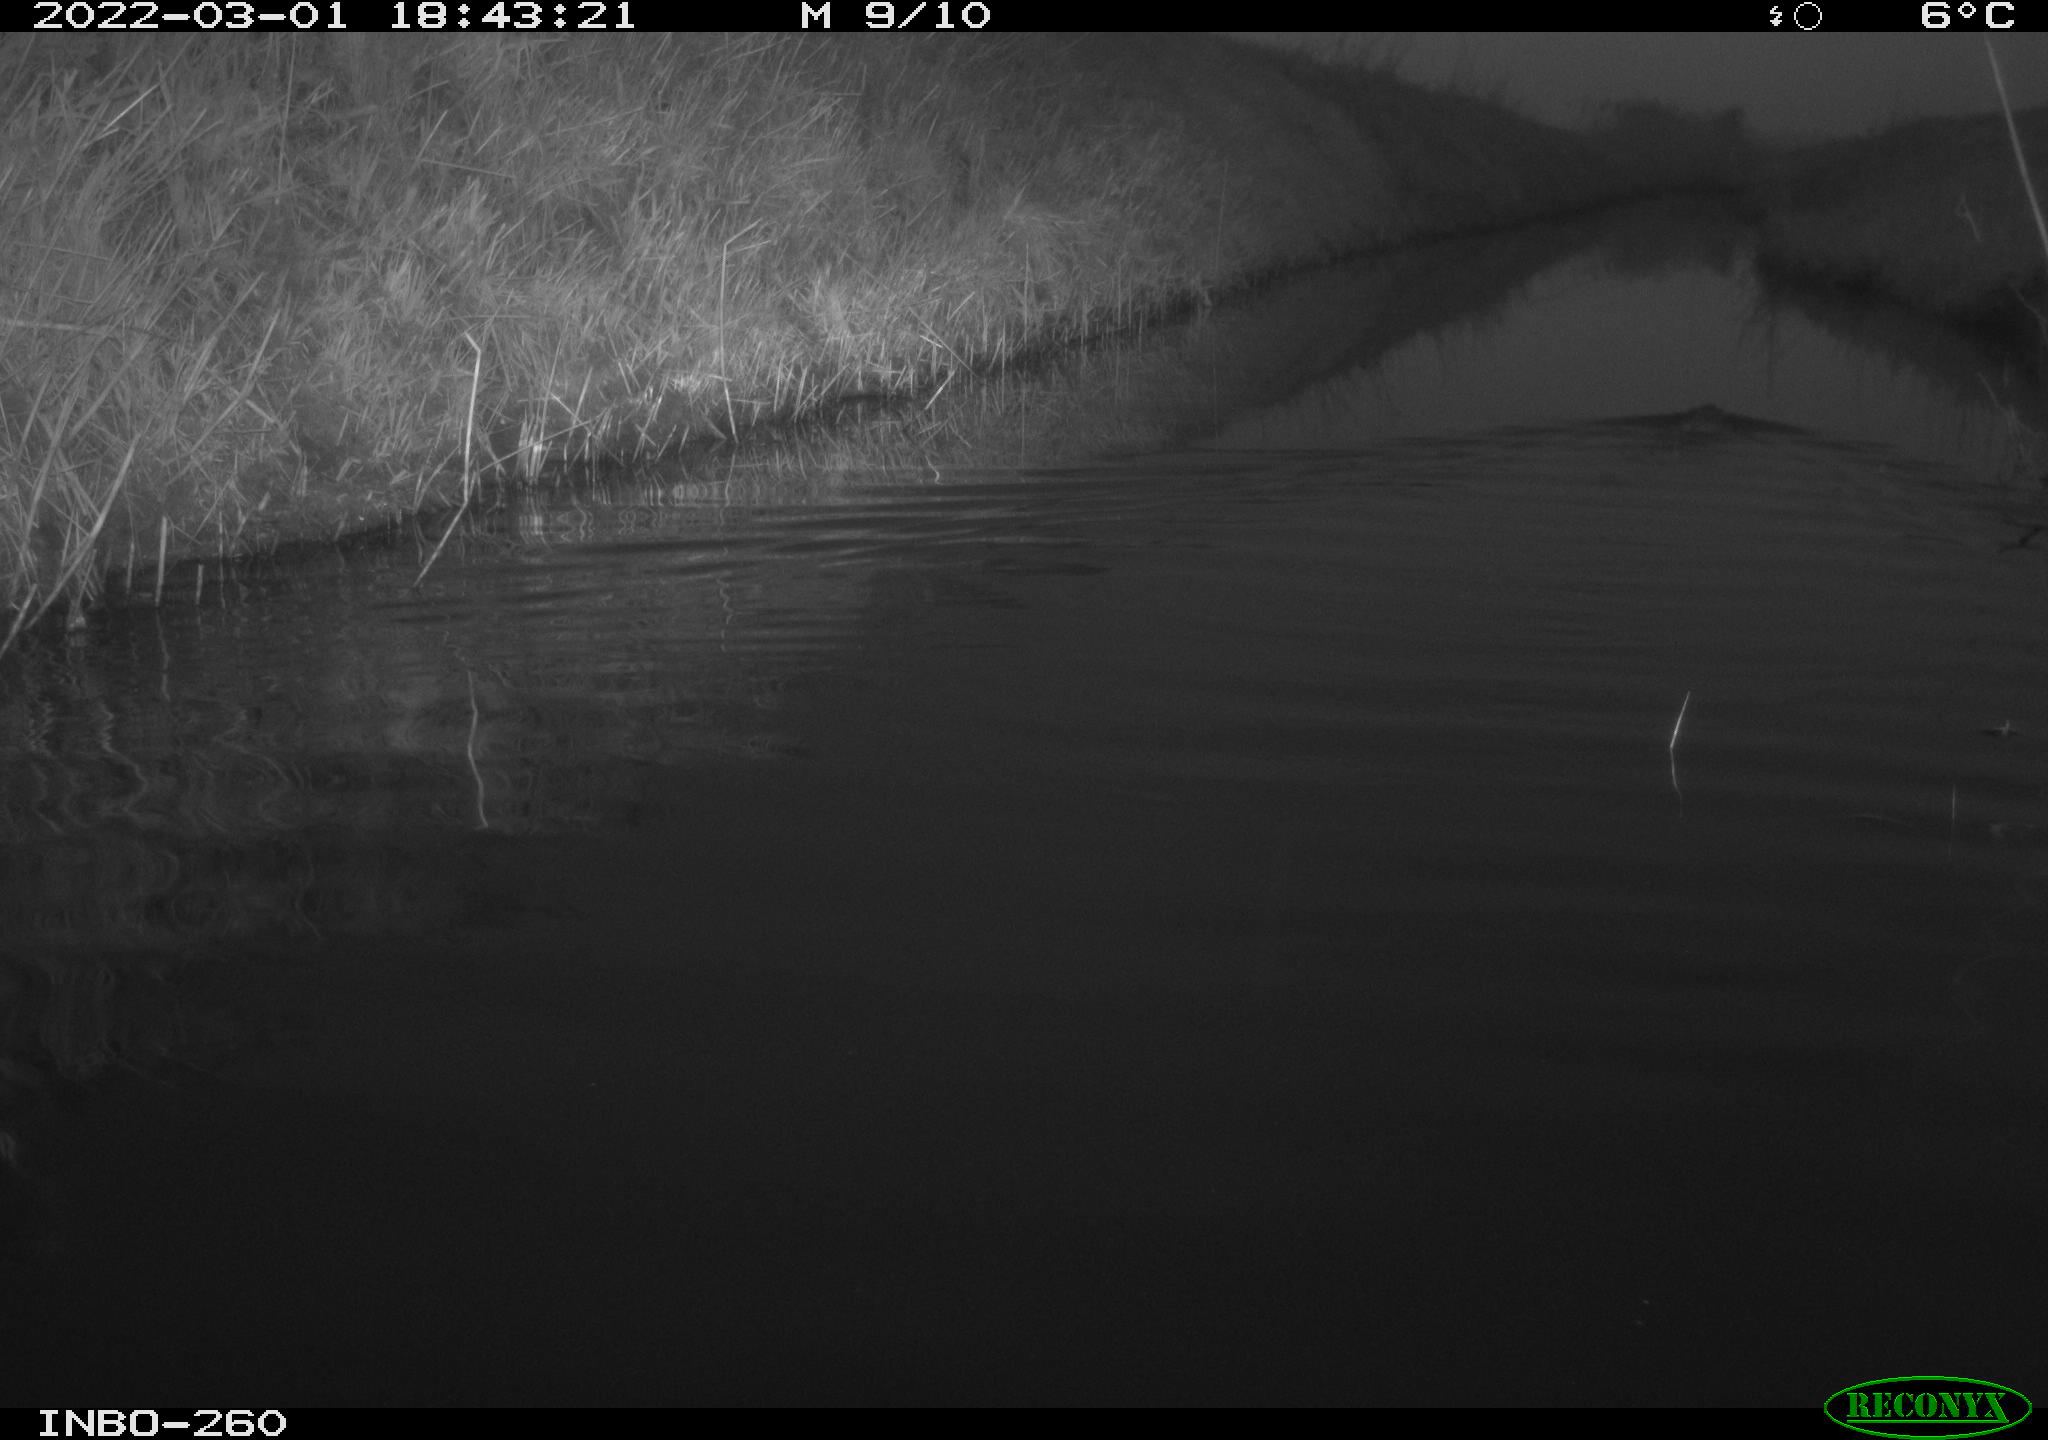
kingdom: Animalia
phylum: Chordata
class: Mammalia
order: Rodentia
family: Cricetidae
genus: Ondatra
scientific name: Ondatra zibethicus
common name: Muskrat
